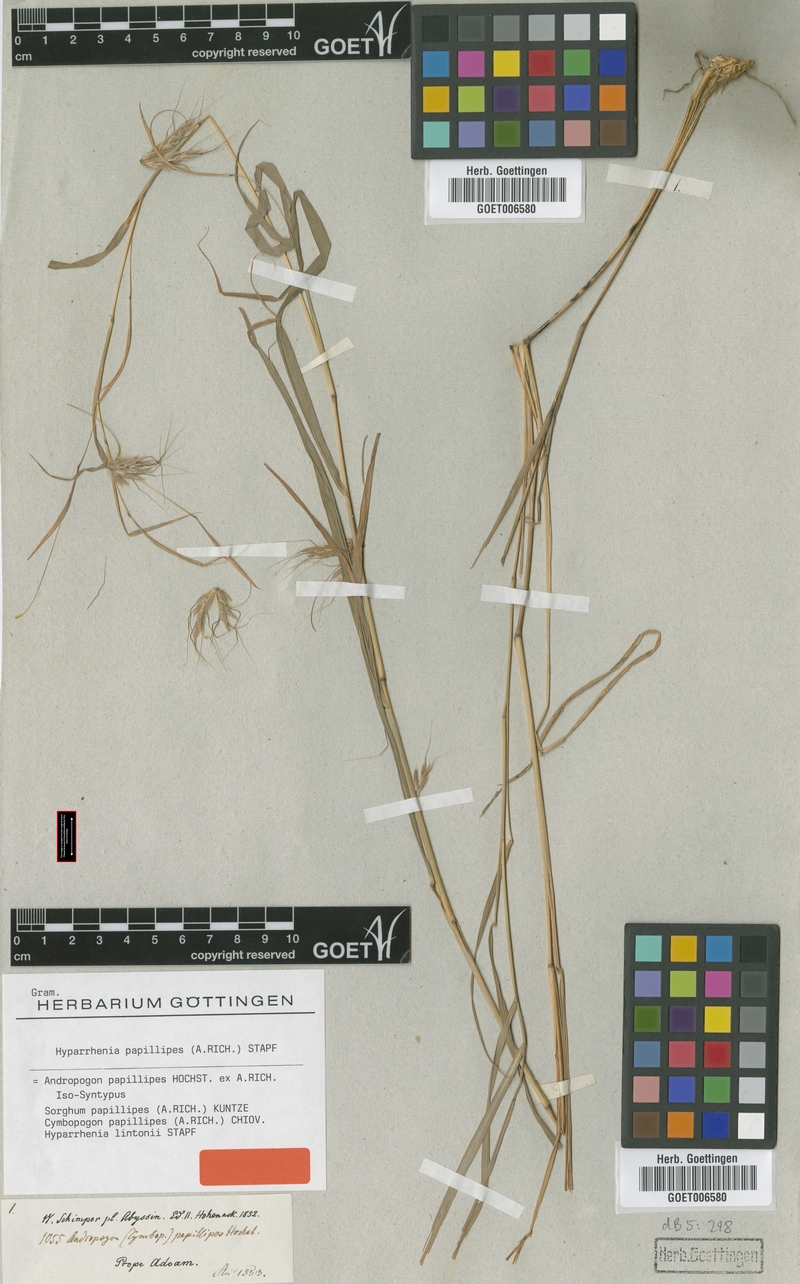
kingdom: Plantae
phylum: Tracheophyta
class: Liliopsida
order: Poales
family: Poaceae
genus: Hyparrhenia
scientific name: Hyparrhenia papillipes
